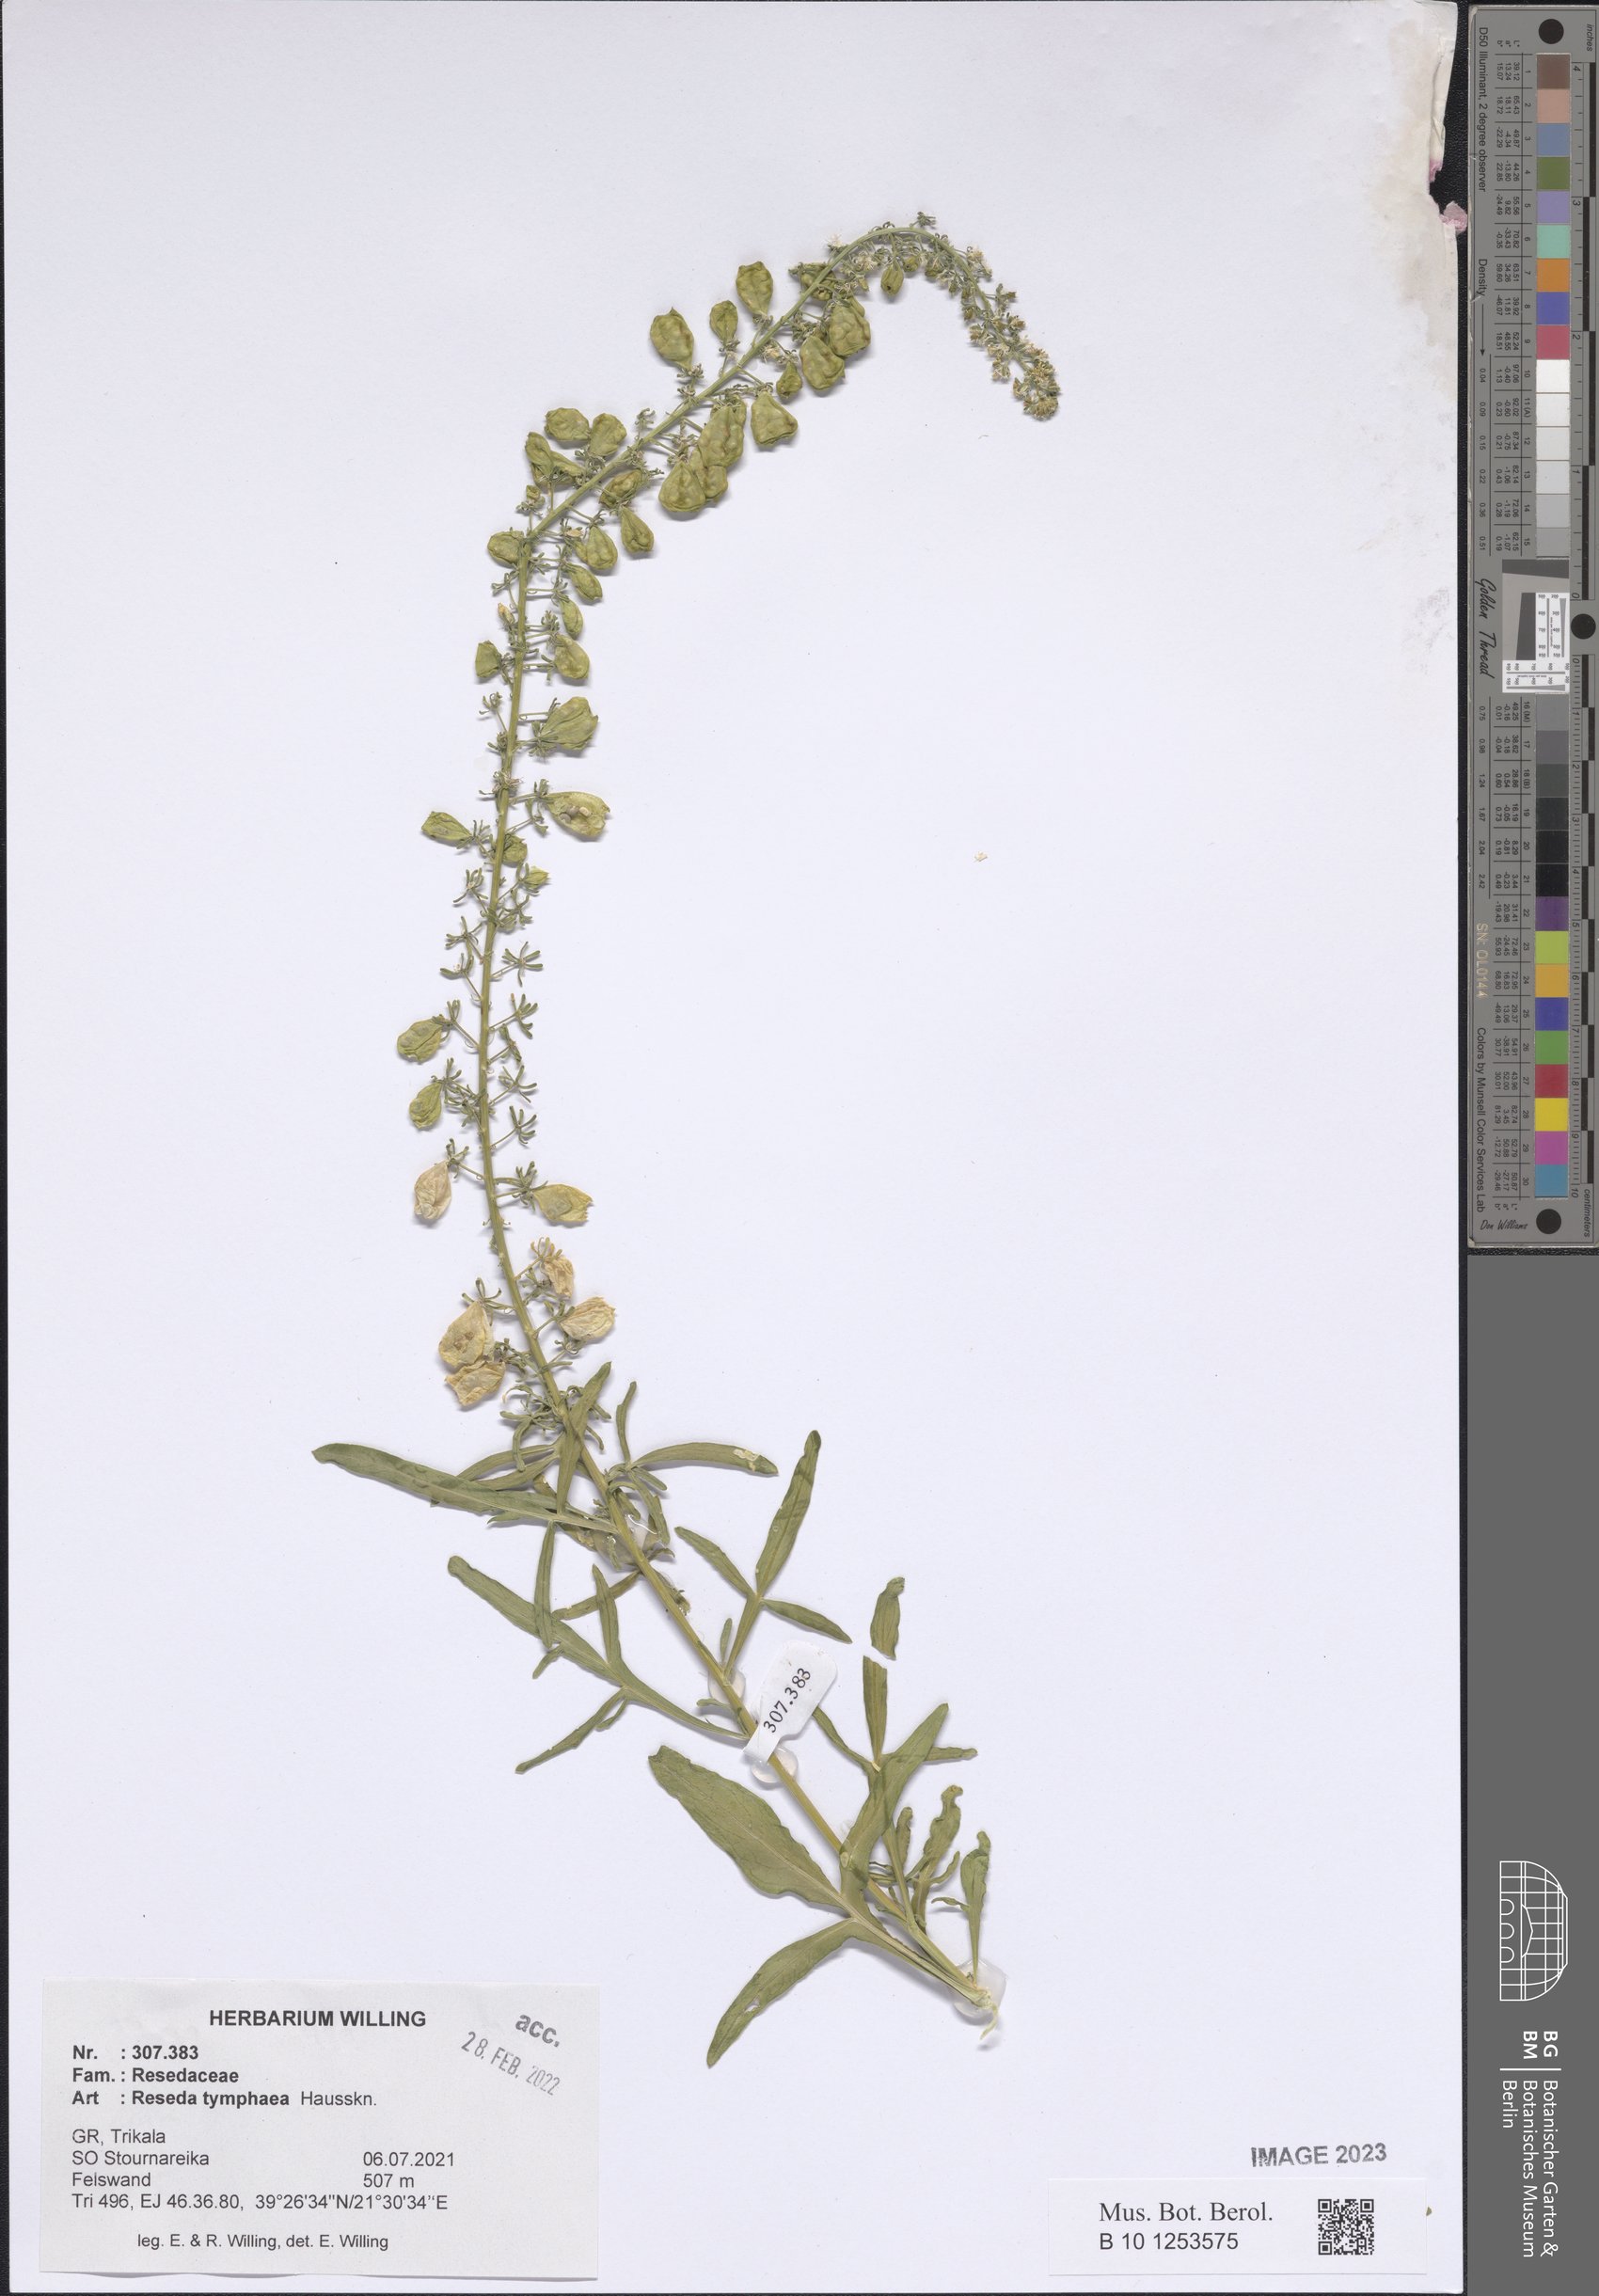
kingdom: Plantae
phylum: Tracheophyta
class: Magnoliopsida
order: Brassicales
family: Resedaceae
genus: Reseda
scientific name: Reseda tymphaea
